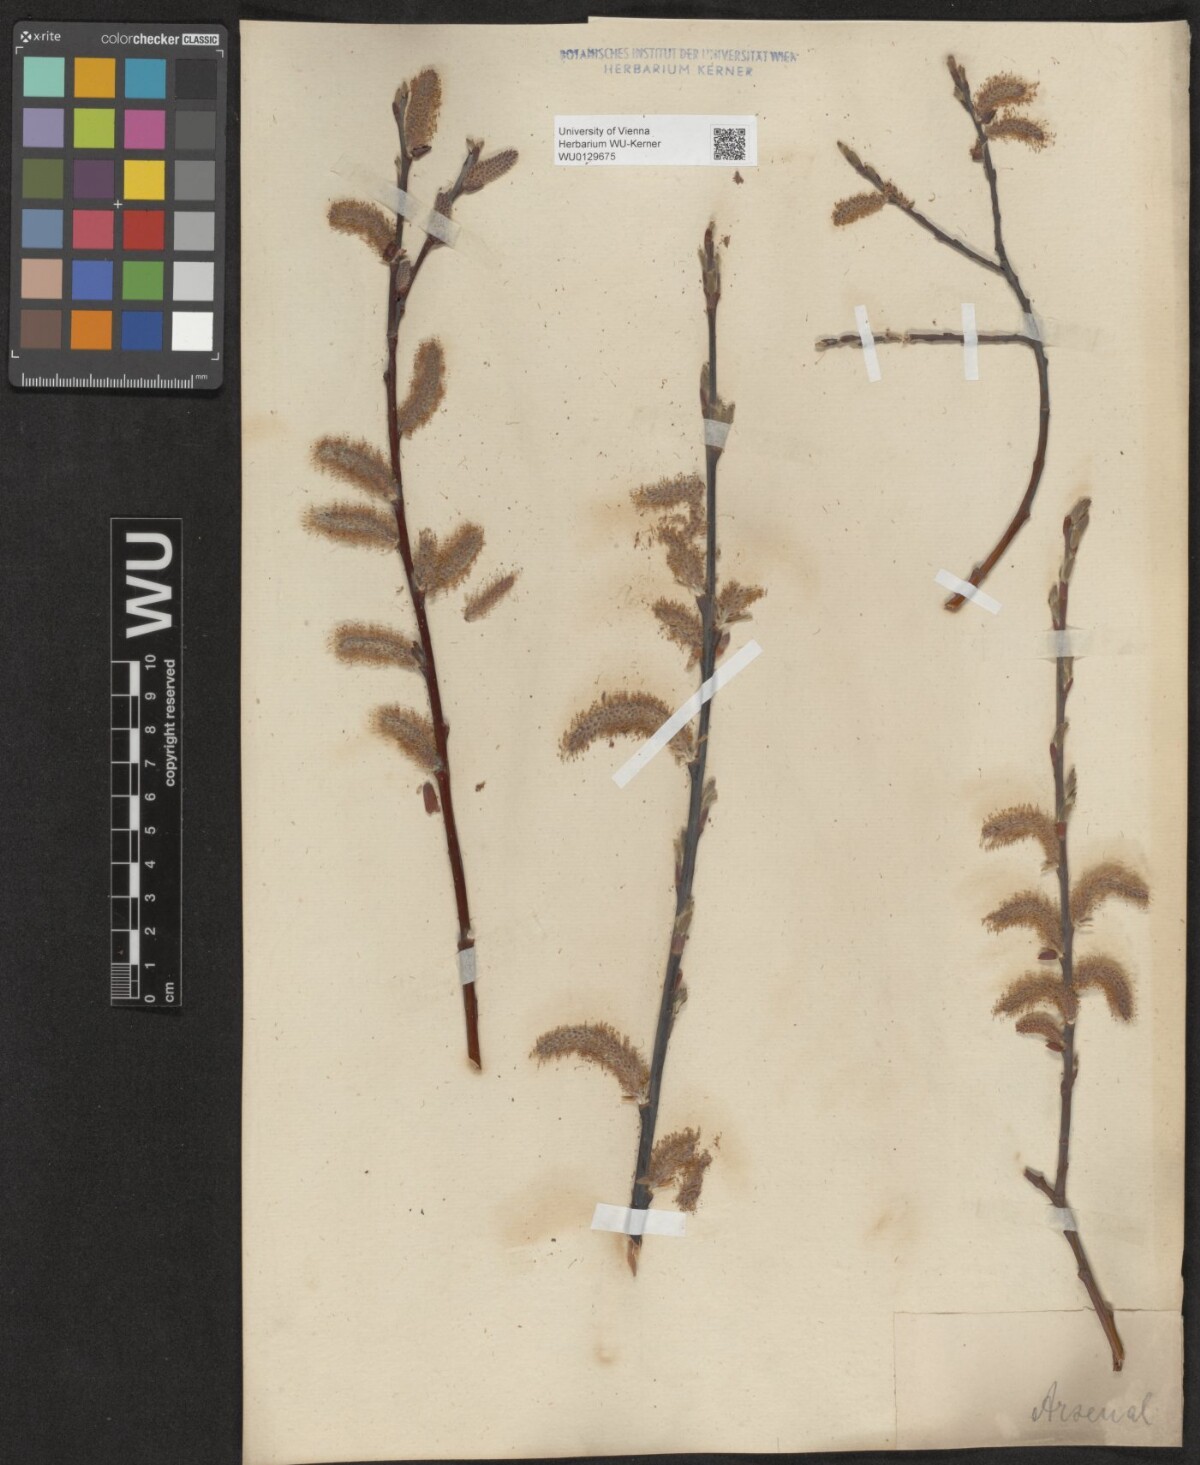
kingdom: Plantae
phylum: Tracheophyta
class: Magnoliopsida
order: Malpighiales
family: Salicaceae
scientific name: Salicaceae
